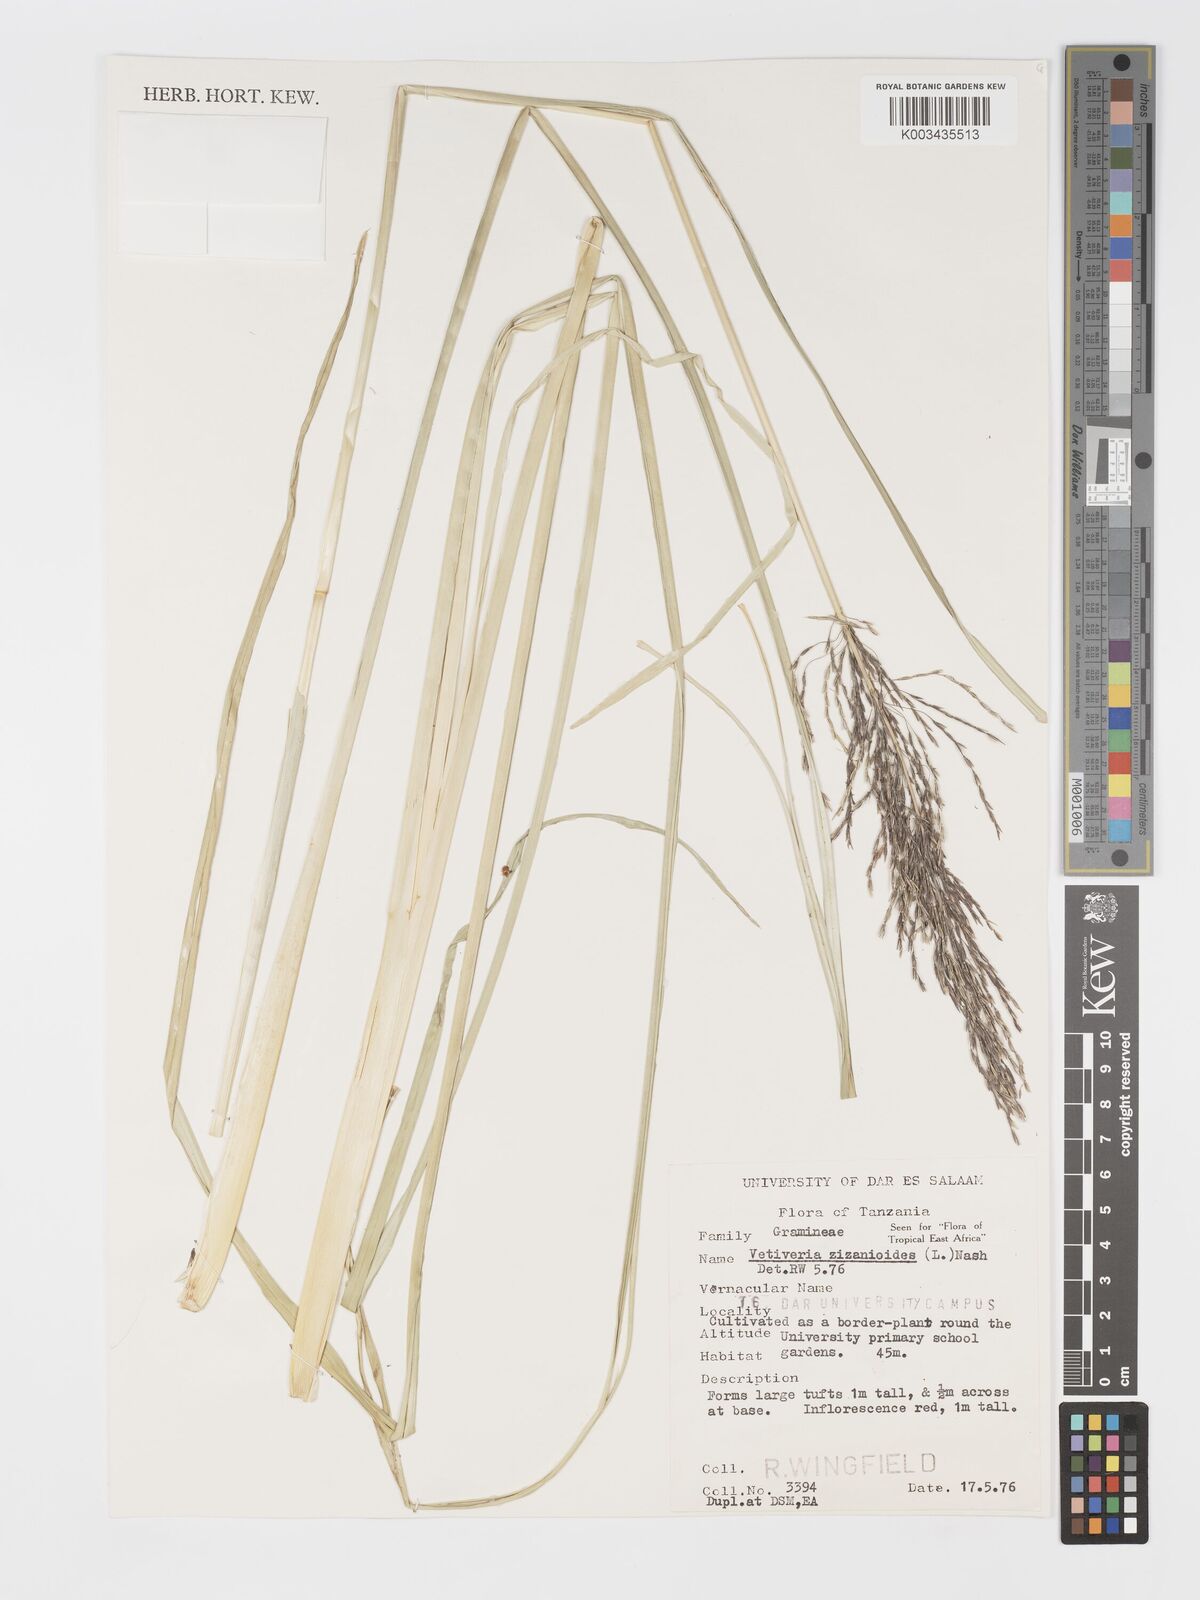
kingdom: Plantae
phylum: Tracheophyta
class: Liliopsida
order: Poales
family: Poaceae
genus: Chrysopogon
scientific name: Chrysopogon zizanioides
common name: False beardgrass
